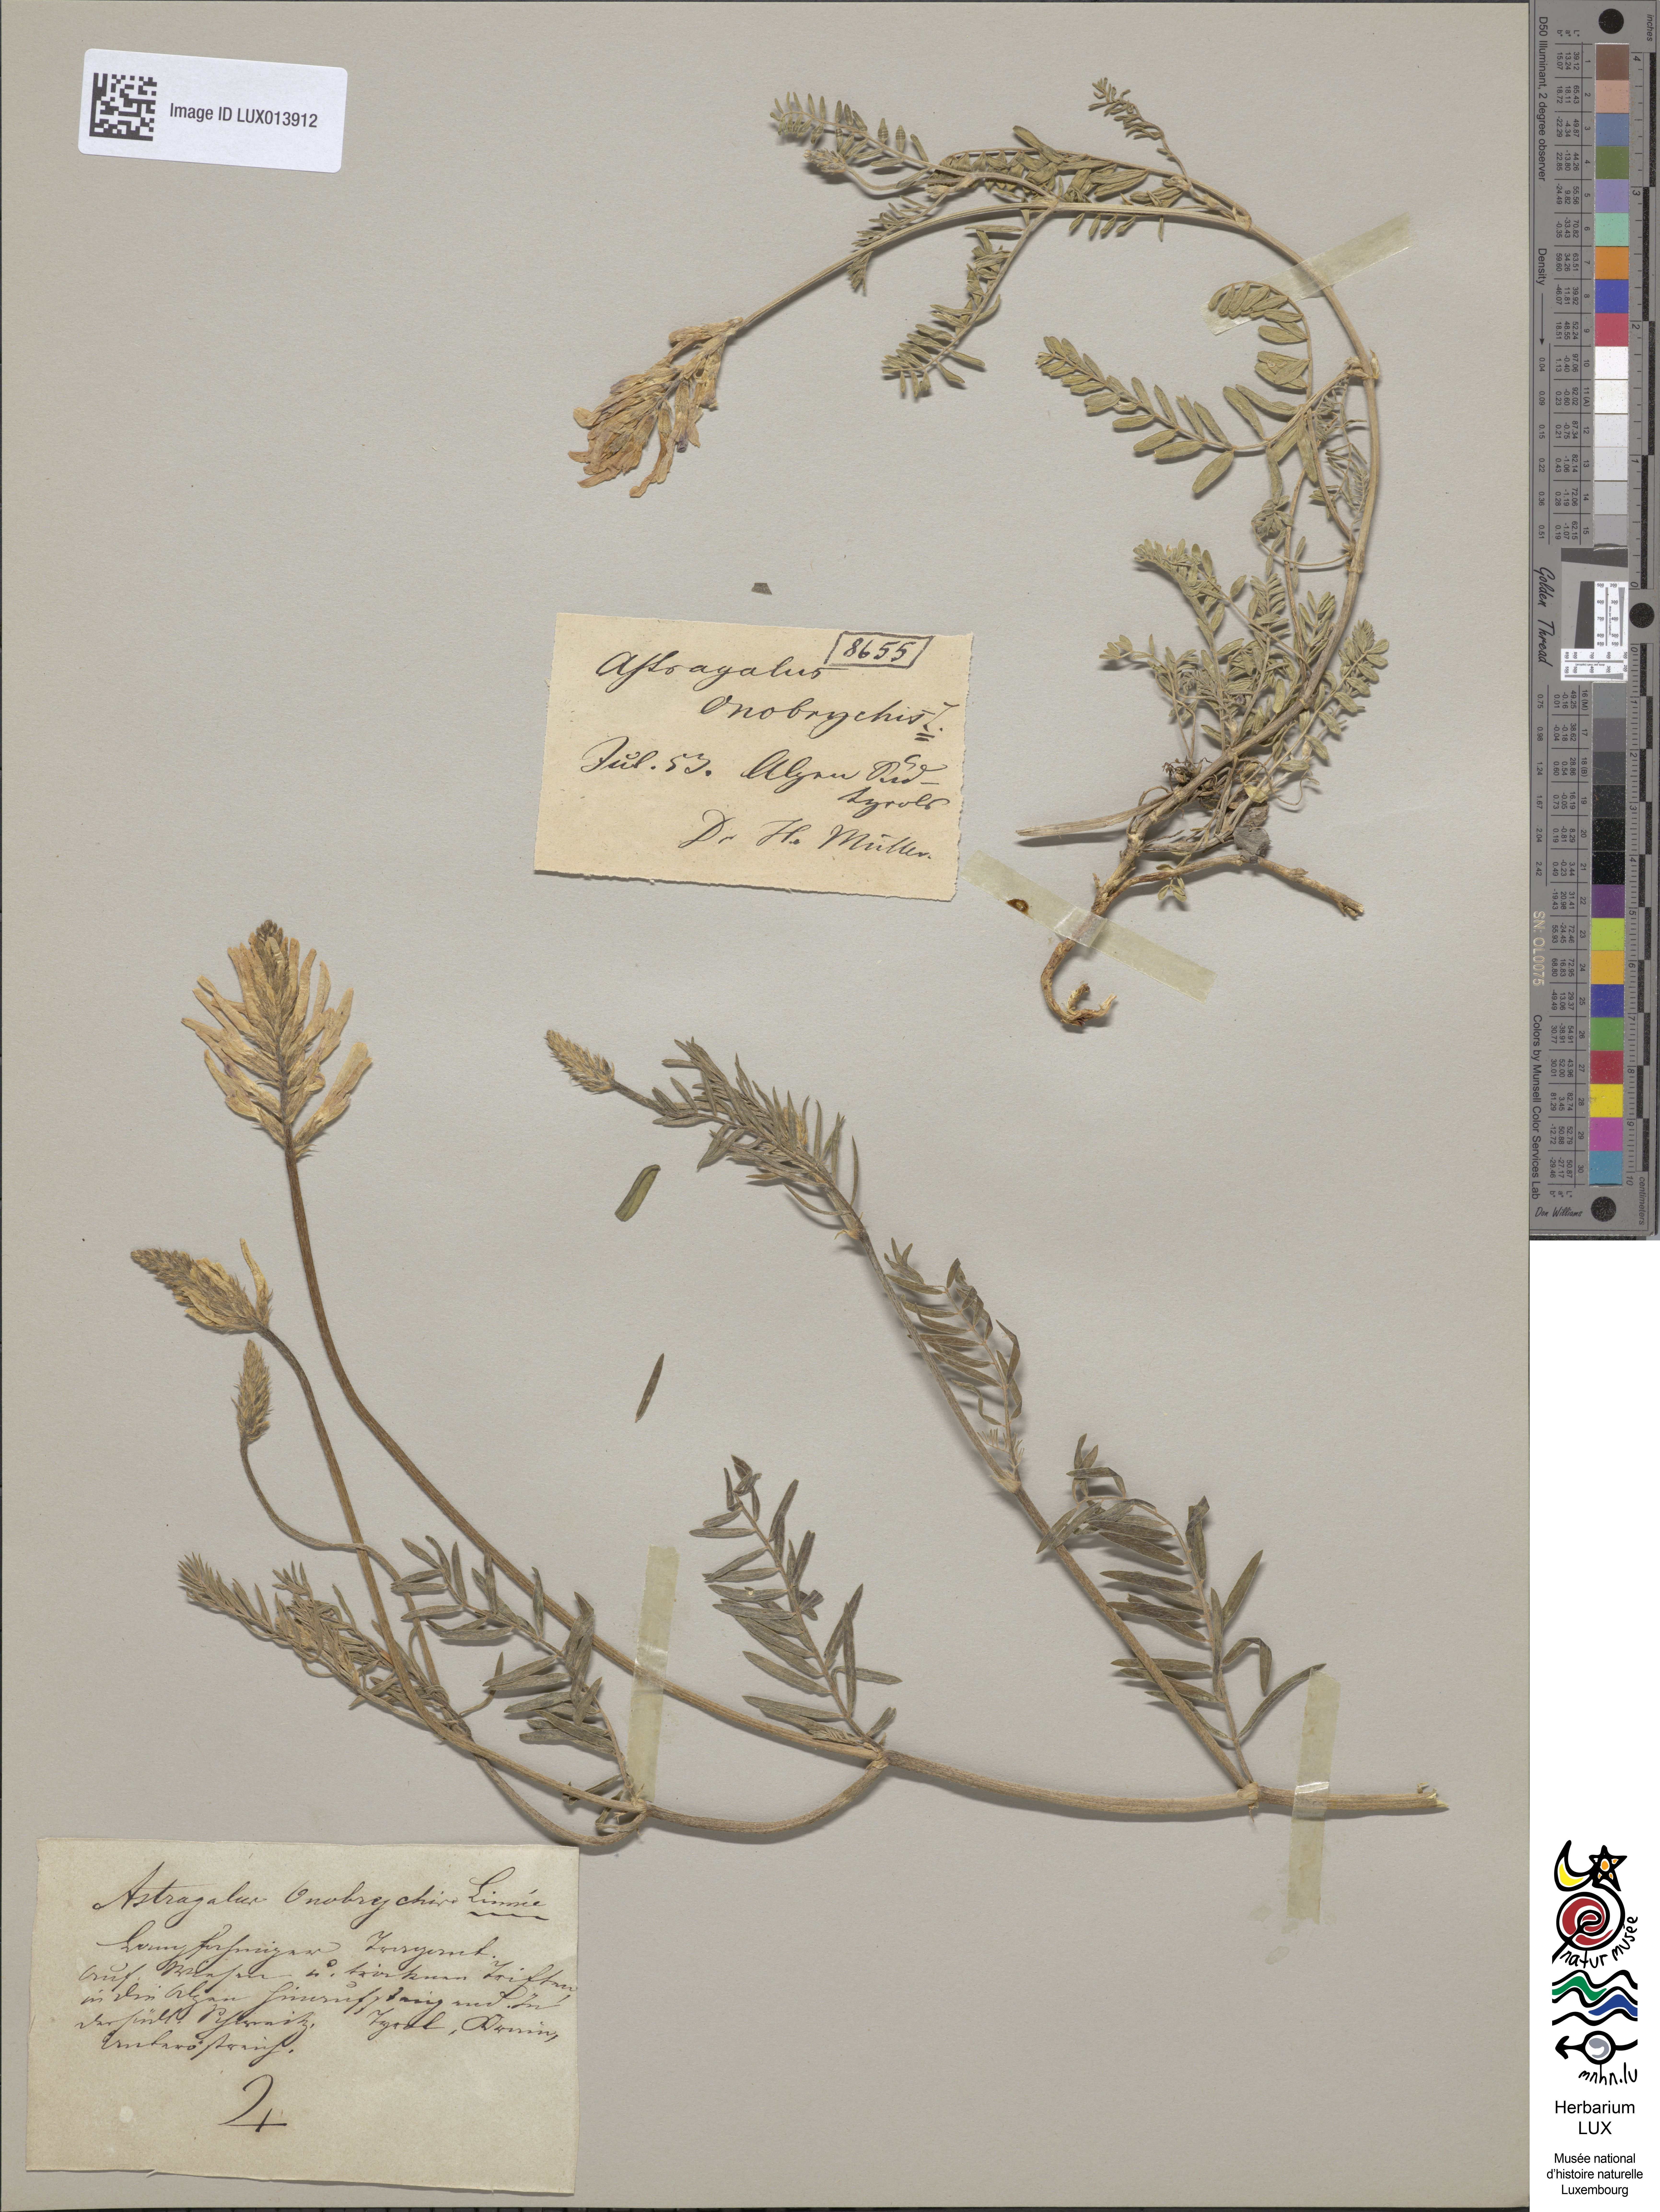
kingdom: Plantae
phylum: Tracheophyta
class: Magnoliopsida
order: Fabales
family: Fabaceae
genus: Astragalus
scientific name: Astragalus onobrychis
